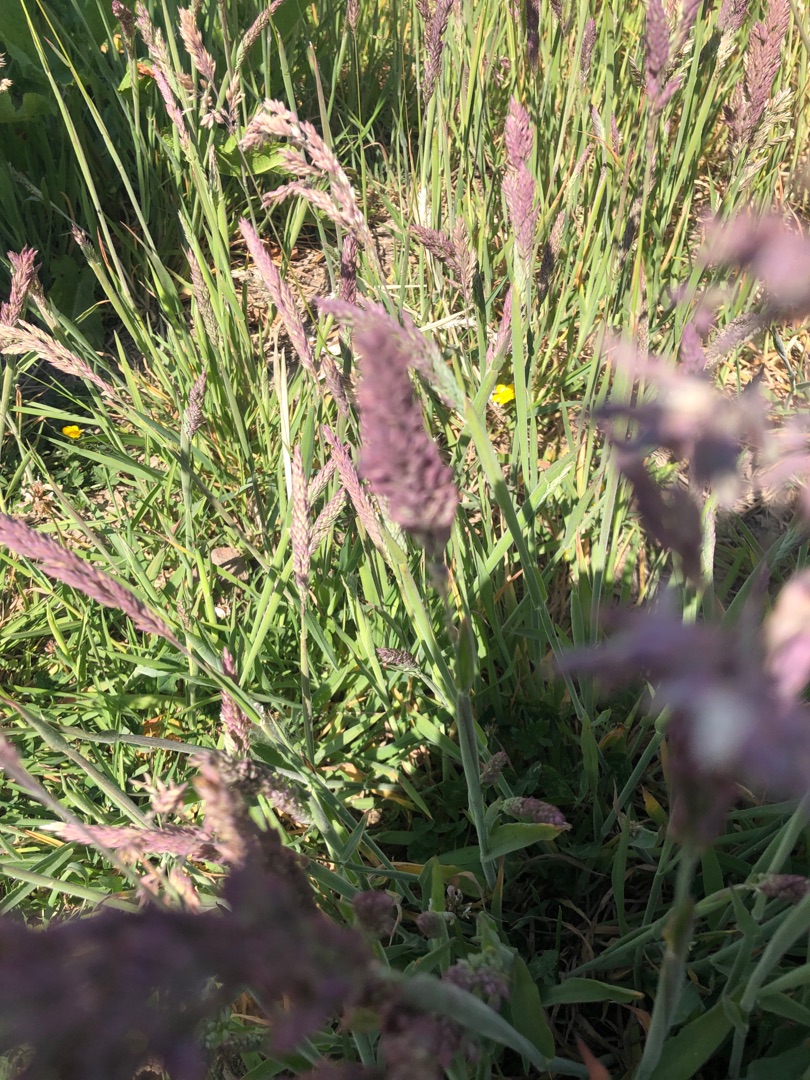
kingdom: Plantae
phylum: Tracheophyta
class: Liliopsida
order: Poales
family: Poaceae
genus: Holcus
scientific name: Holcus lanatus
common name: Fløjlsgræs
